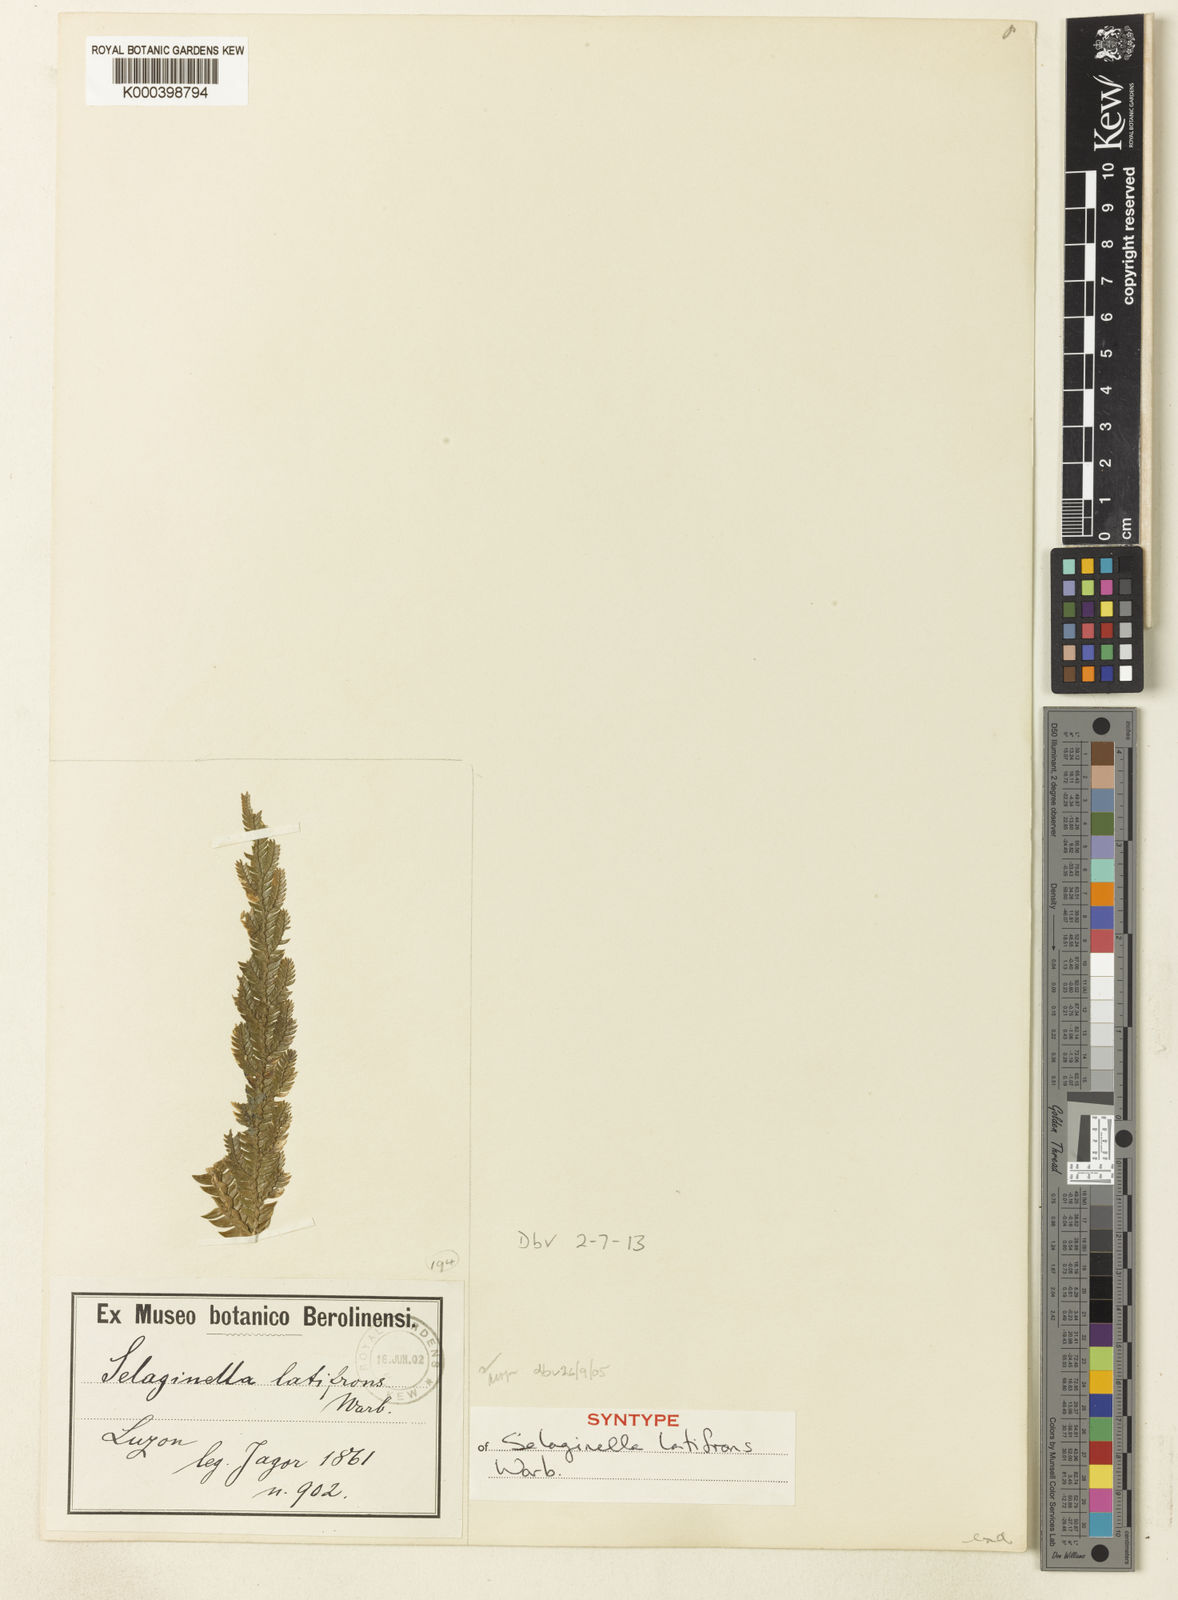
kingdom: Plantae
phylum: Tracheophyta
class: Lycopodiopsida
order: Selaginellales
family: Selaginellaceae
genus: Selaginella
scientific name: Selaginella copelandii
